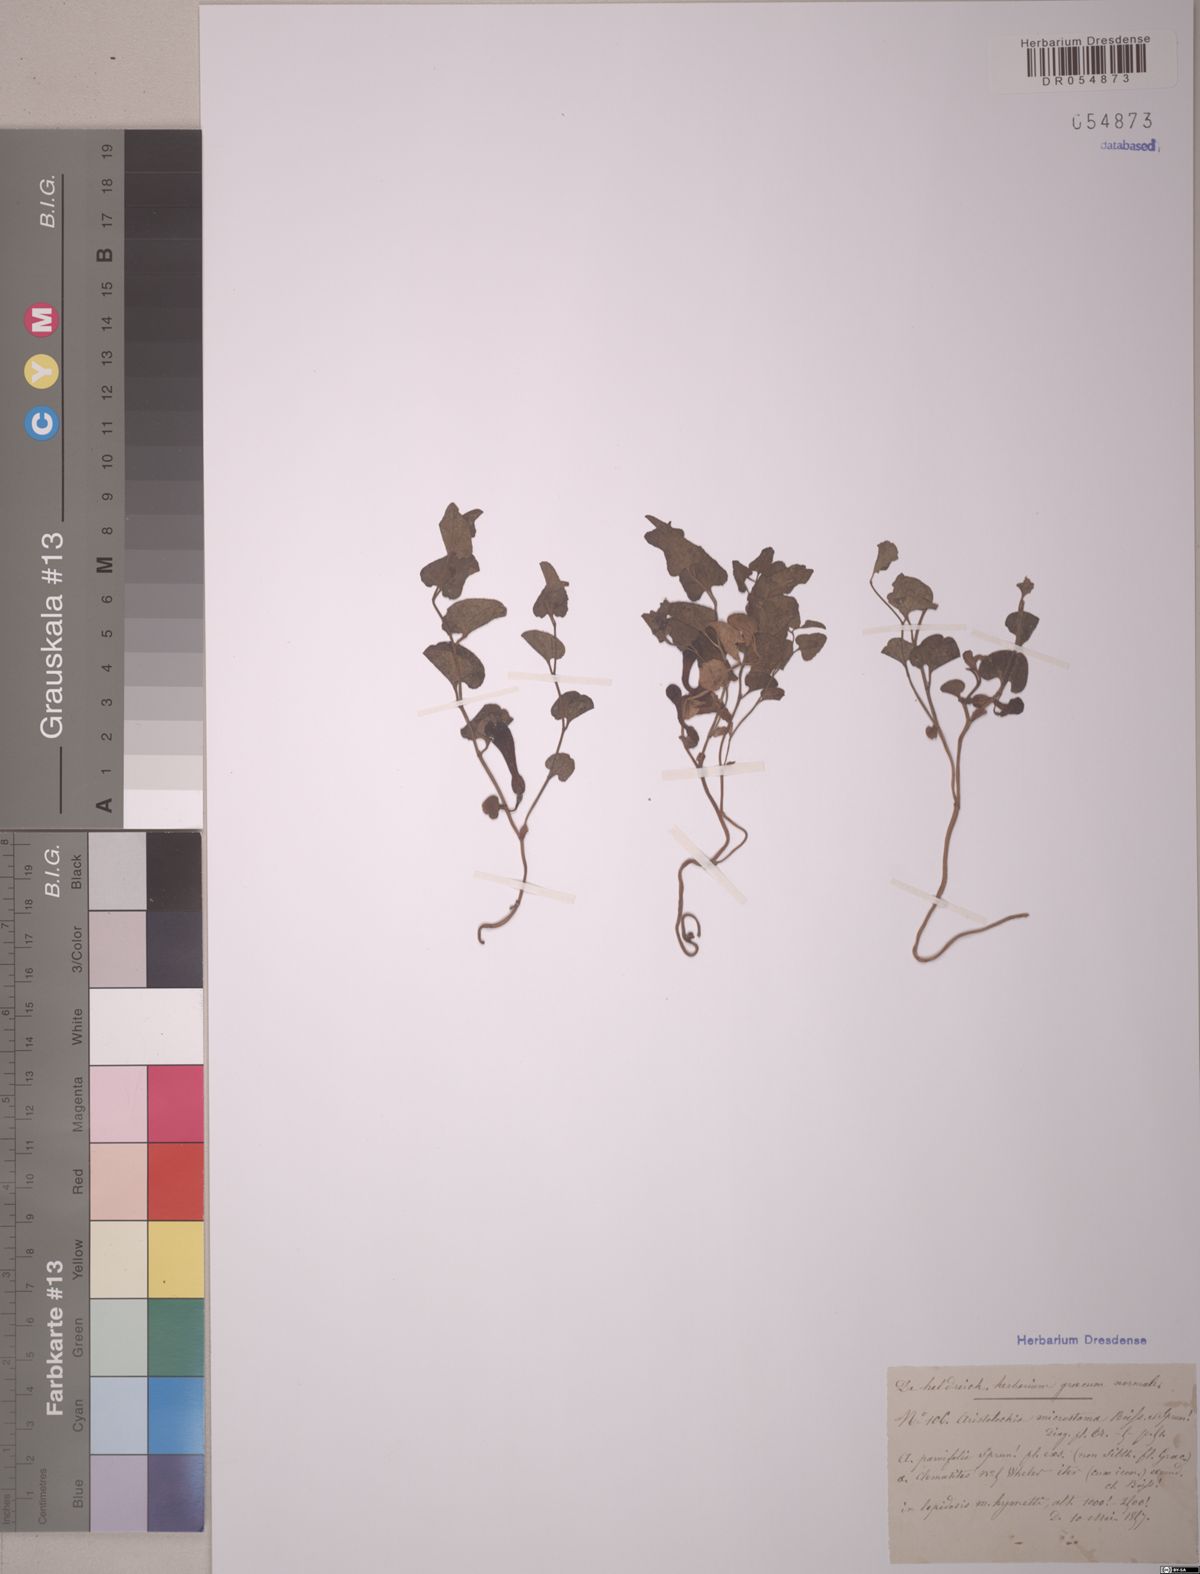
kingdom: Plantae
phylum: Tracheophyta
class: Magnoliopsida
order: Piperales
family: Aristolochiaceae
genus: Aristolochia
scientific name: Aristolochia microstoma
